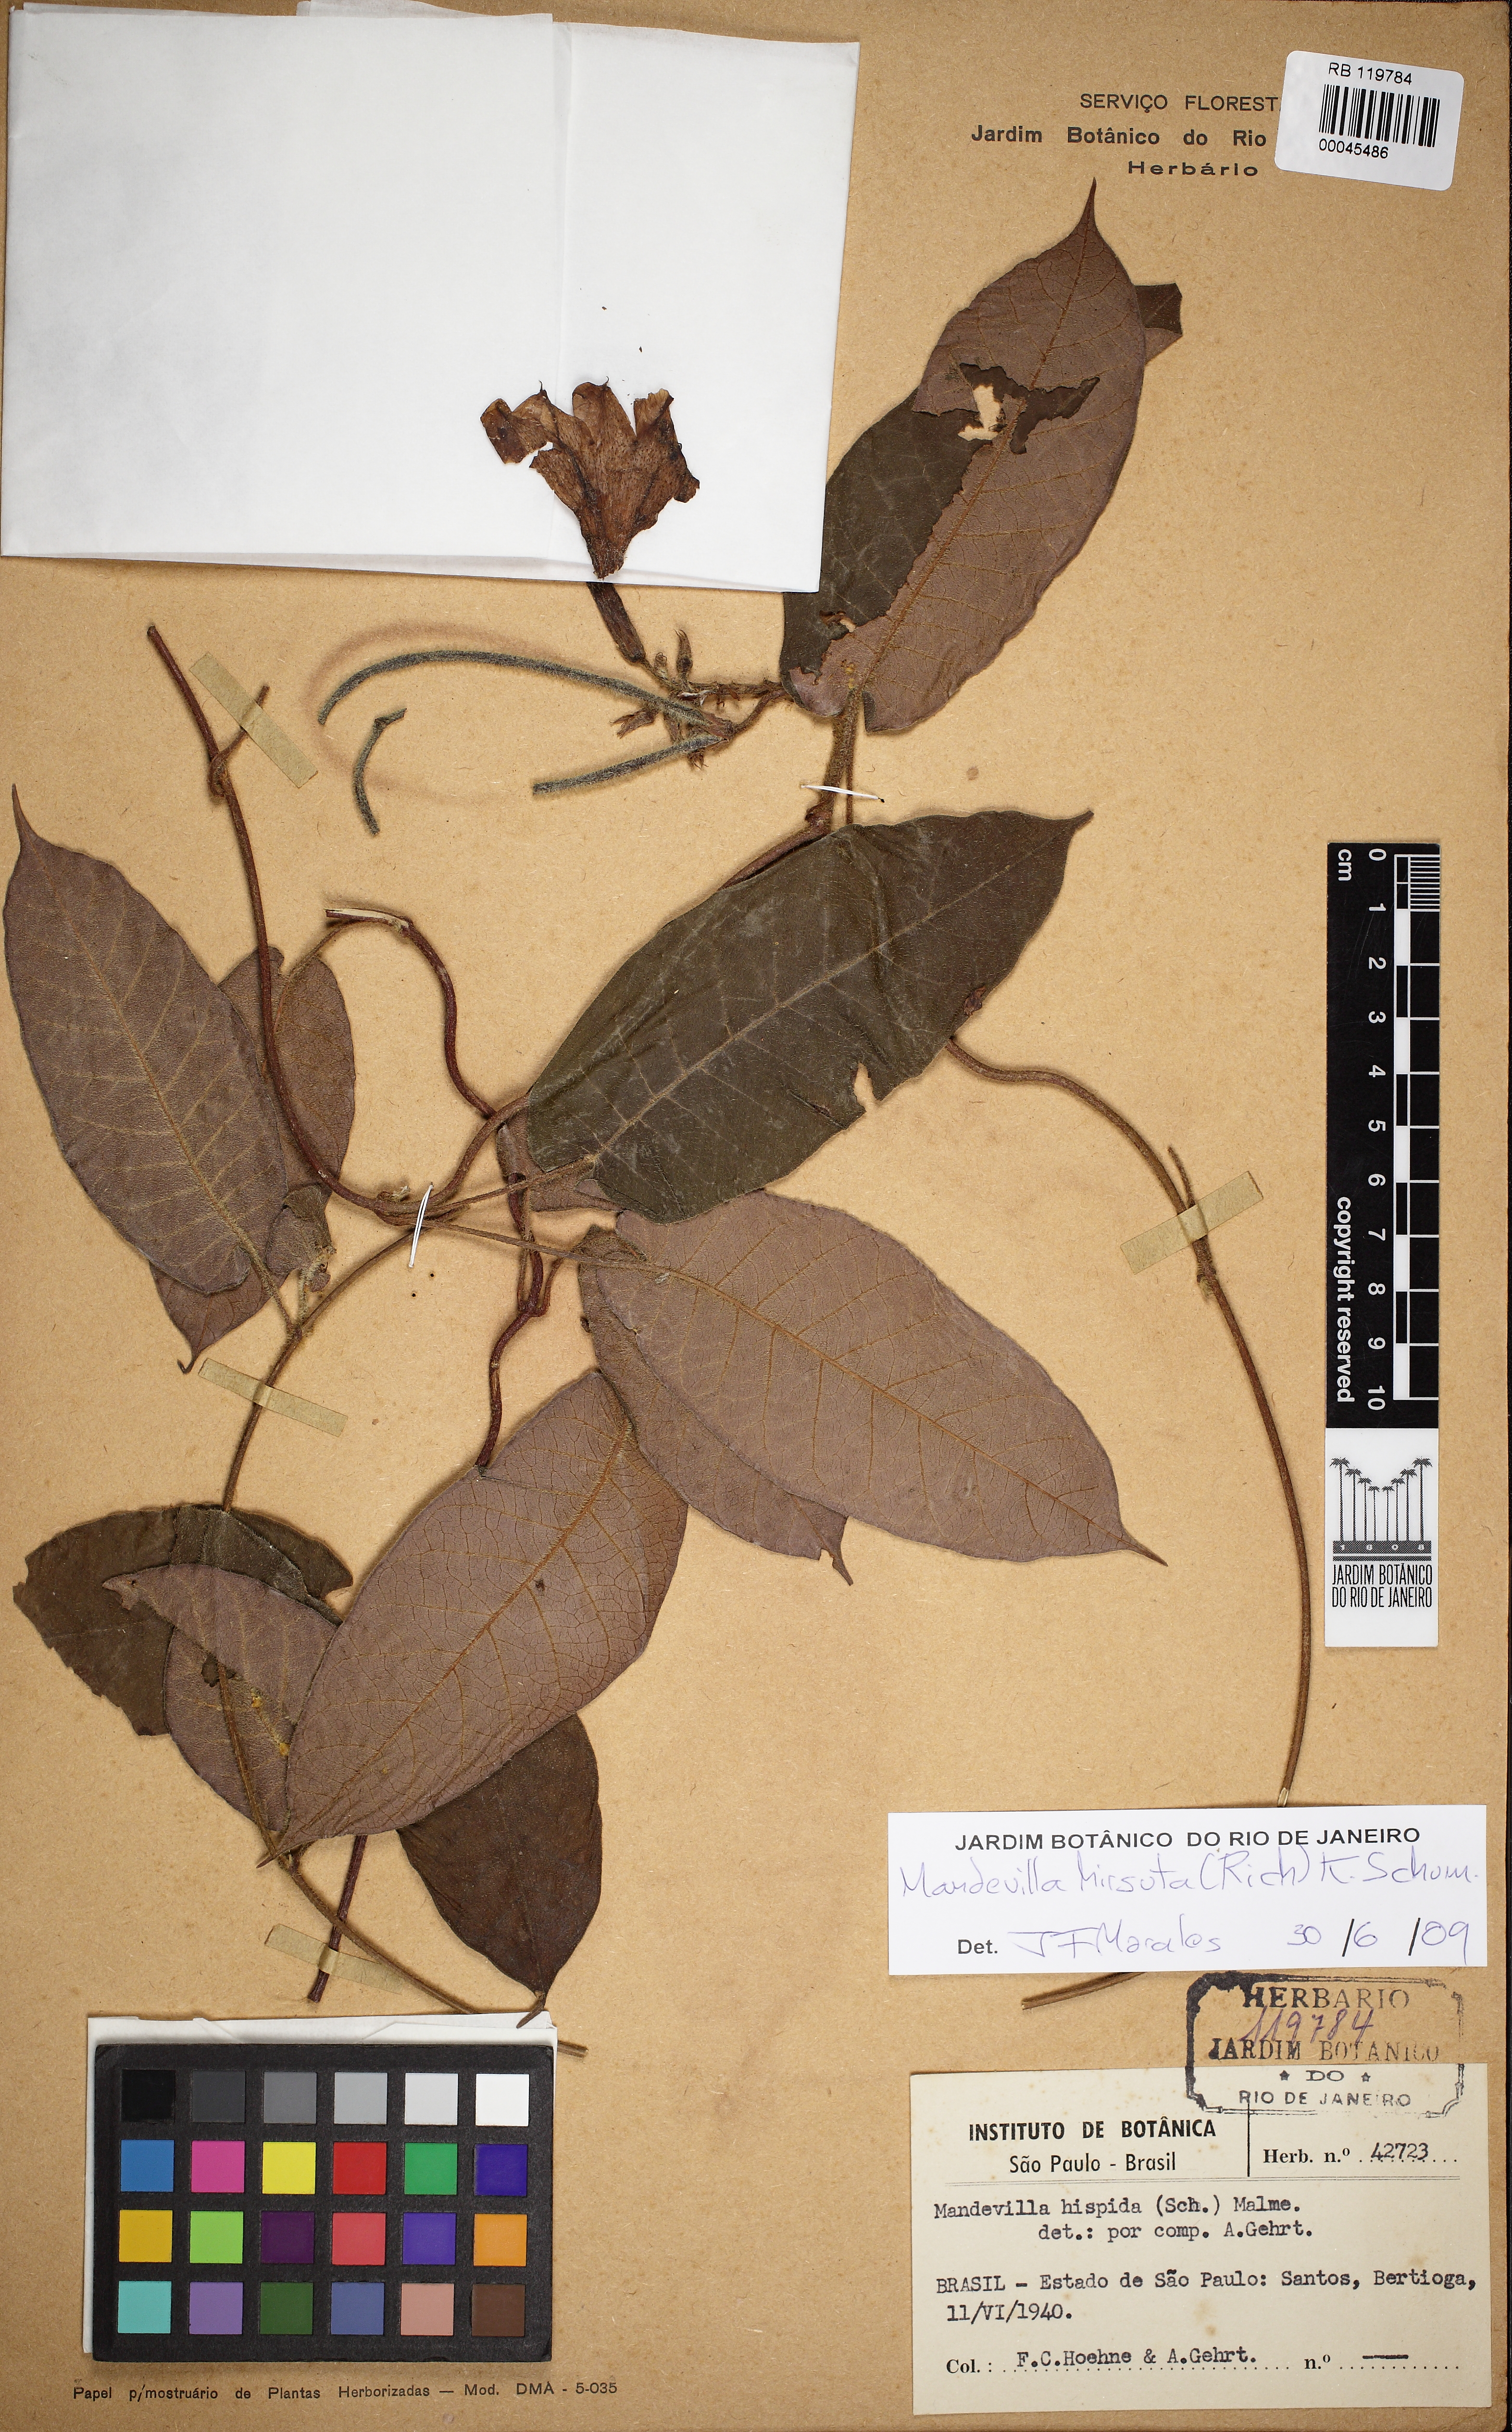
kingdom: Plantae
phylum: Tracheophyta
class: Magnoliopsida
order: Gentianales
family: Apocynaceae
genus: Mandevilla
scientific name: Mandevilla hirsuta
